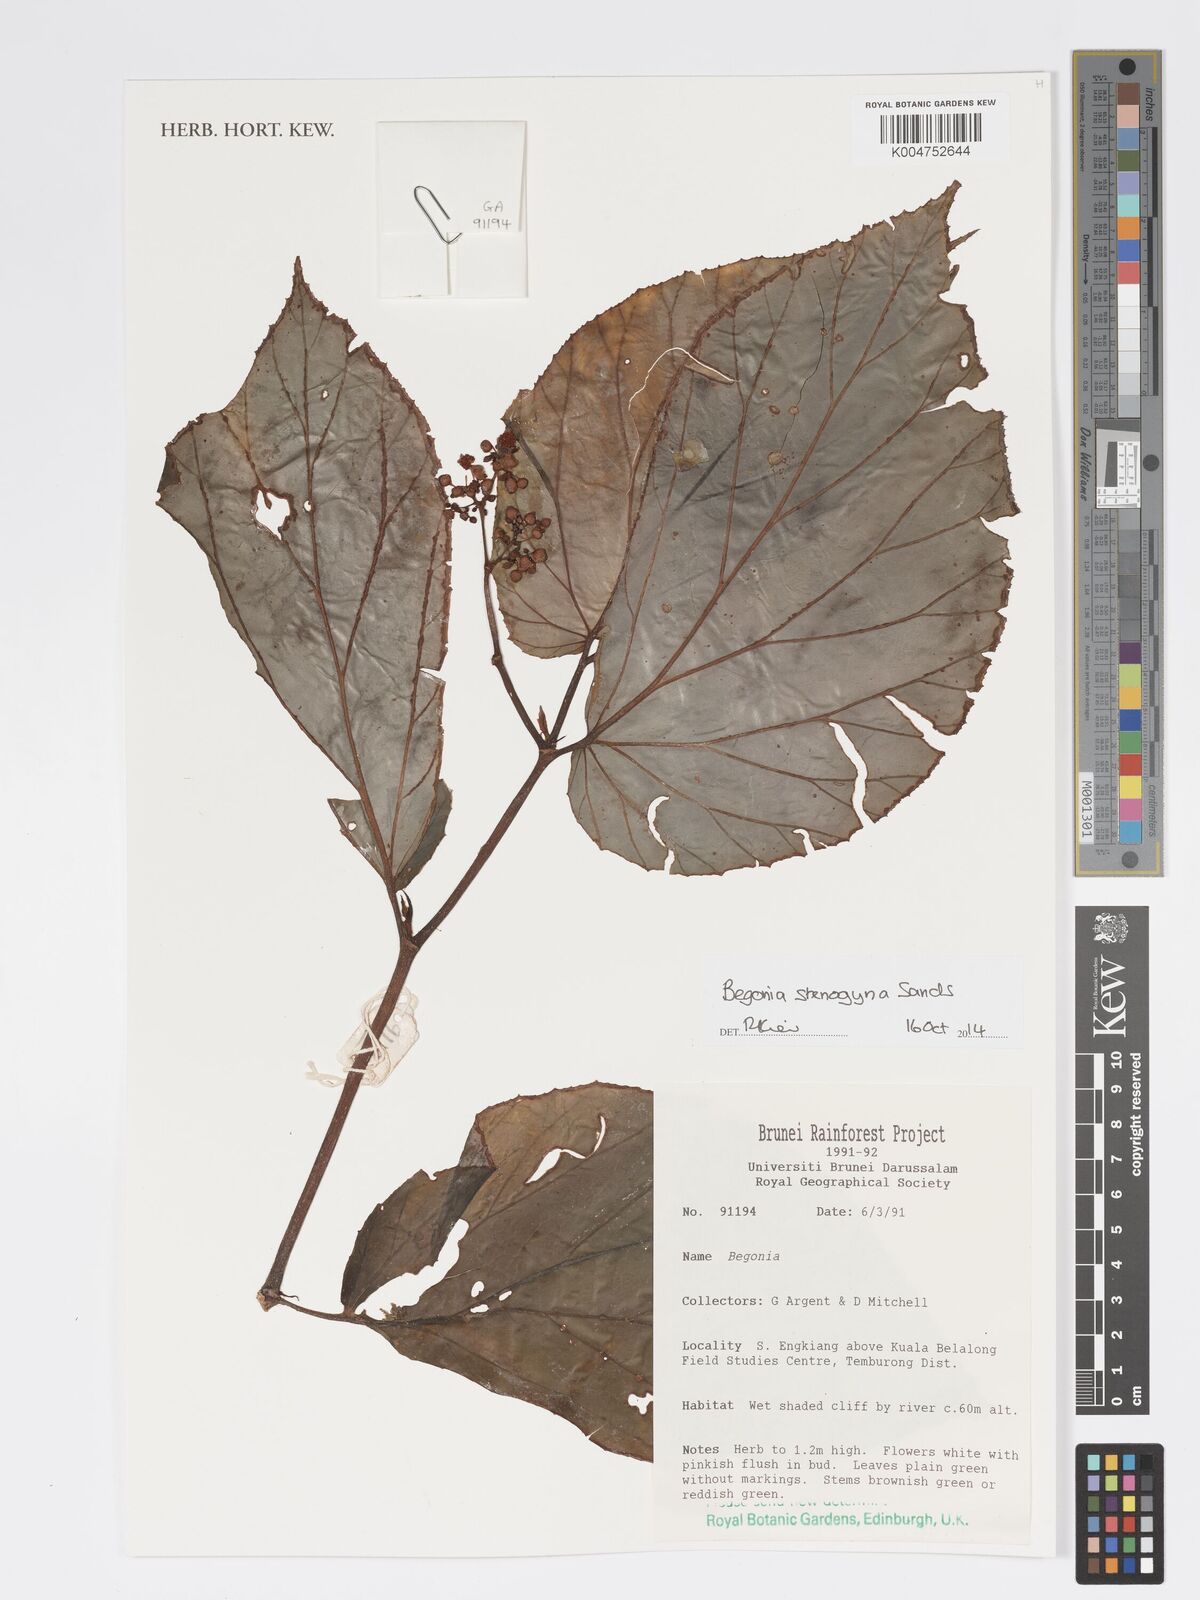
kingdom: Plantae
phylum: Tracheophyta
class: Magnoliopsida
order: Cucurbitales
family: Begoniaceae
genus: Begonia
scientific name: Begonia stenogyna
